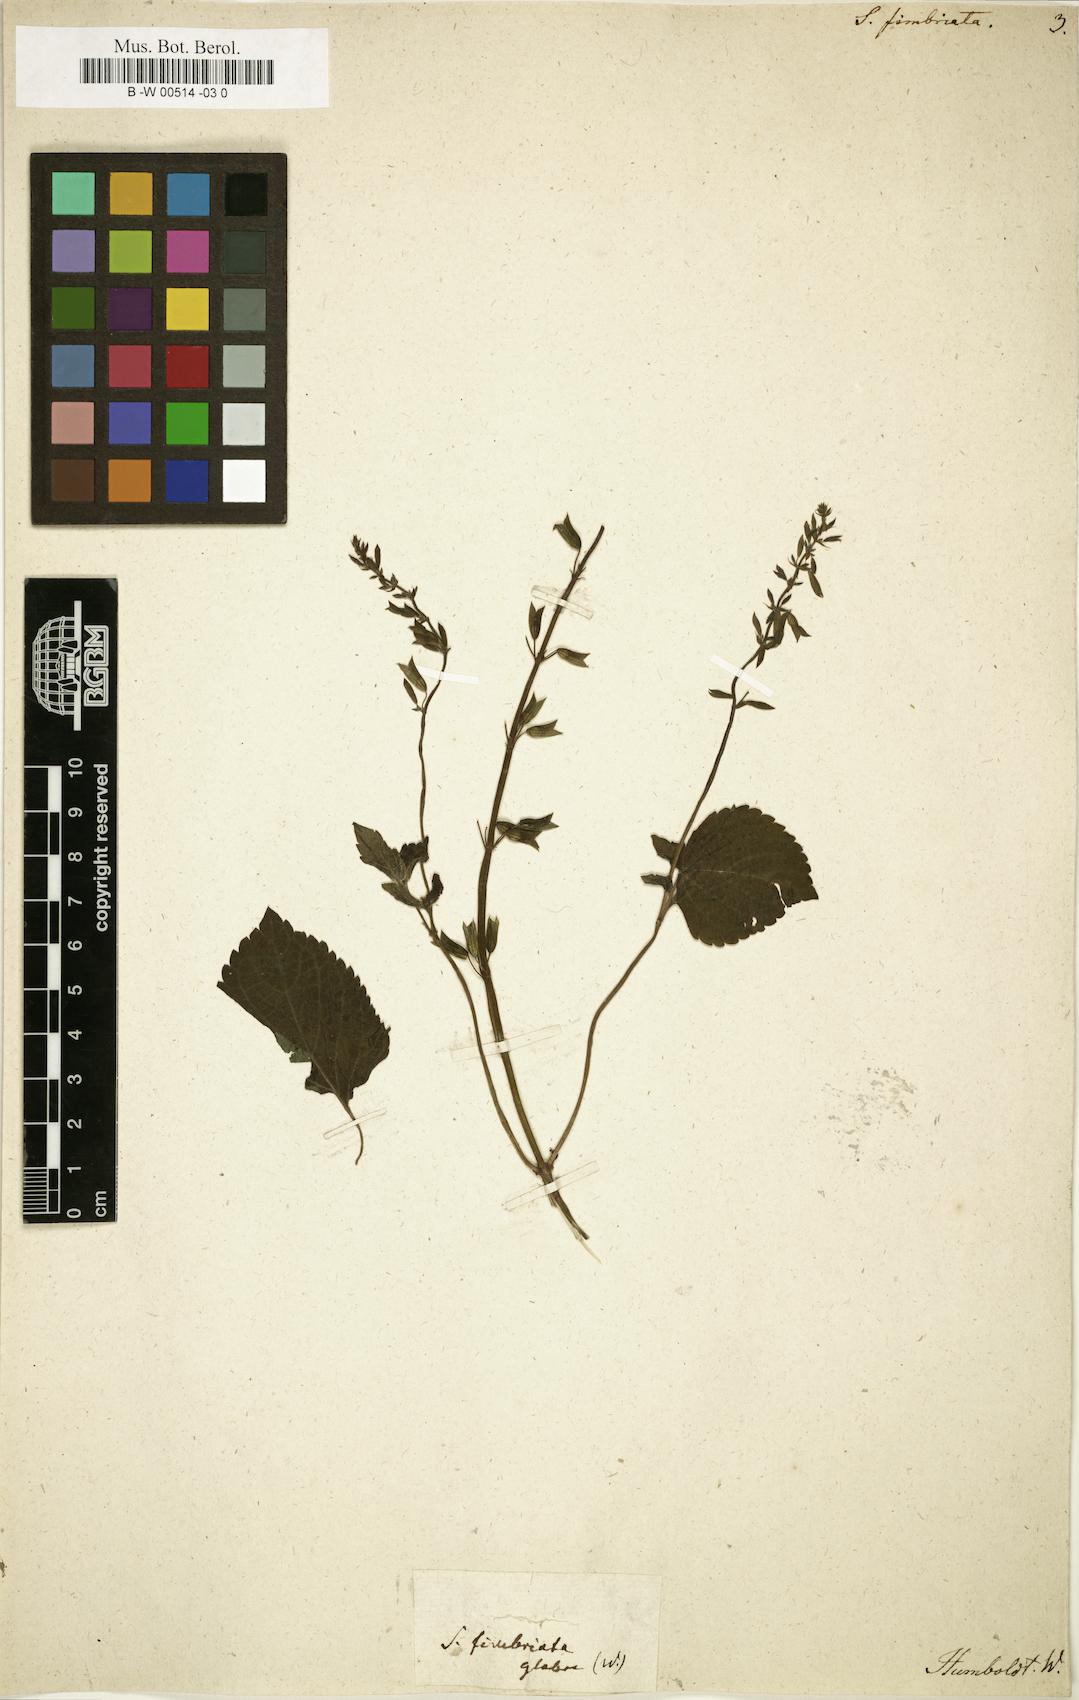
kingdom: Plantae
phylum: Tracheophyta
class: Magnoliopsida
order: Lamiales
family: Lamiaceae
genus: Salvia
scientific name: Salvia tiliifolia
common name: Lindenleaf sage
